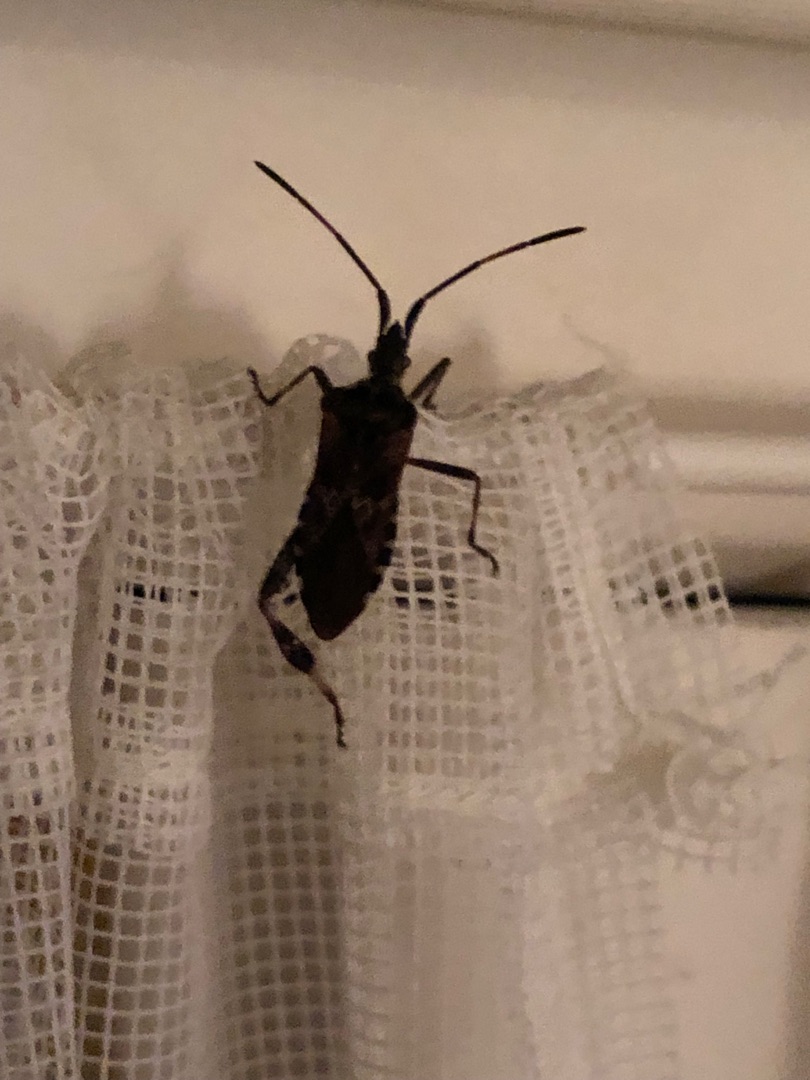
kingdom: Animalia
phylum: Arthropoda
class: Insecta
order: Hemiptera
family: Coreidae
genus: Leptoglossus
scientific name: Leptoglossus occidentalis
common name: Amerikansk fyrretæge
